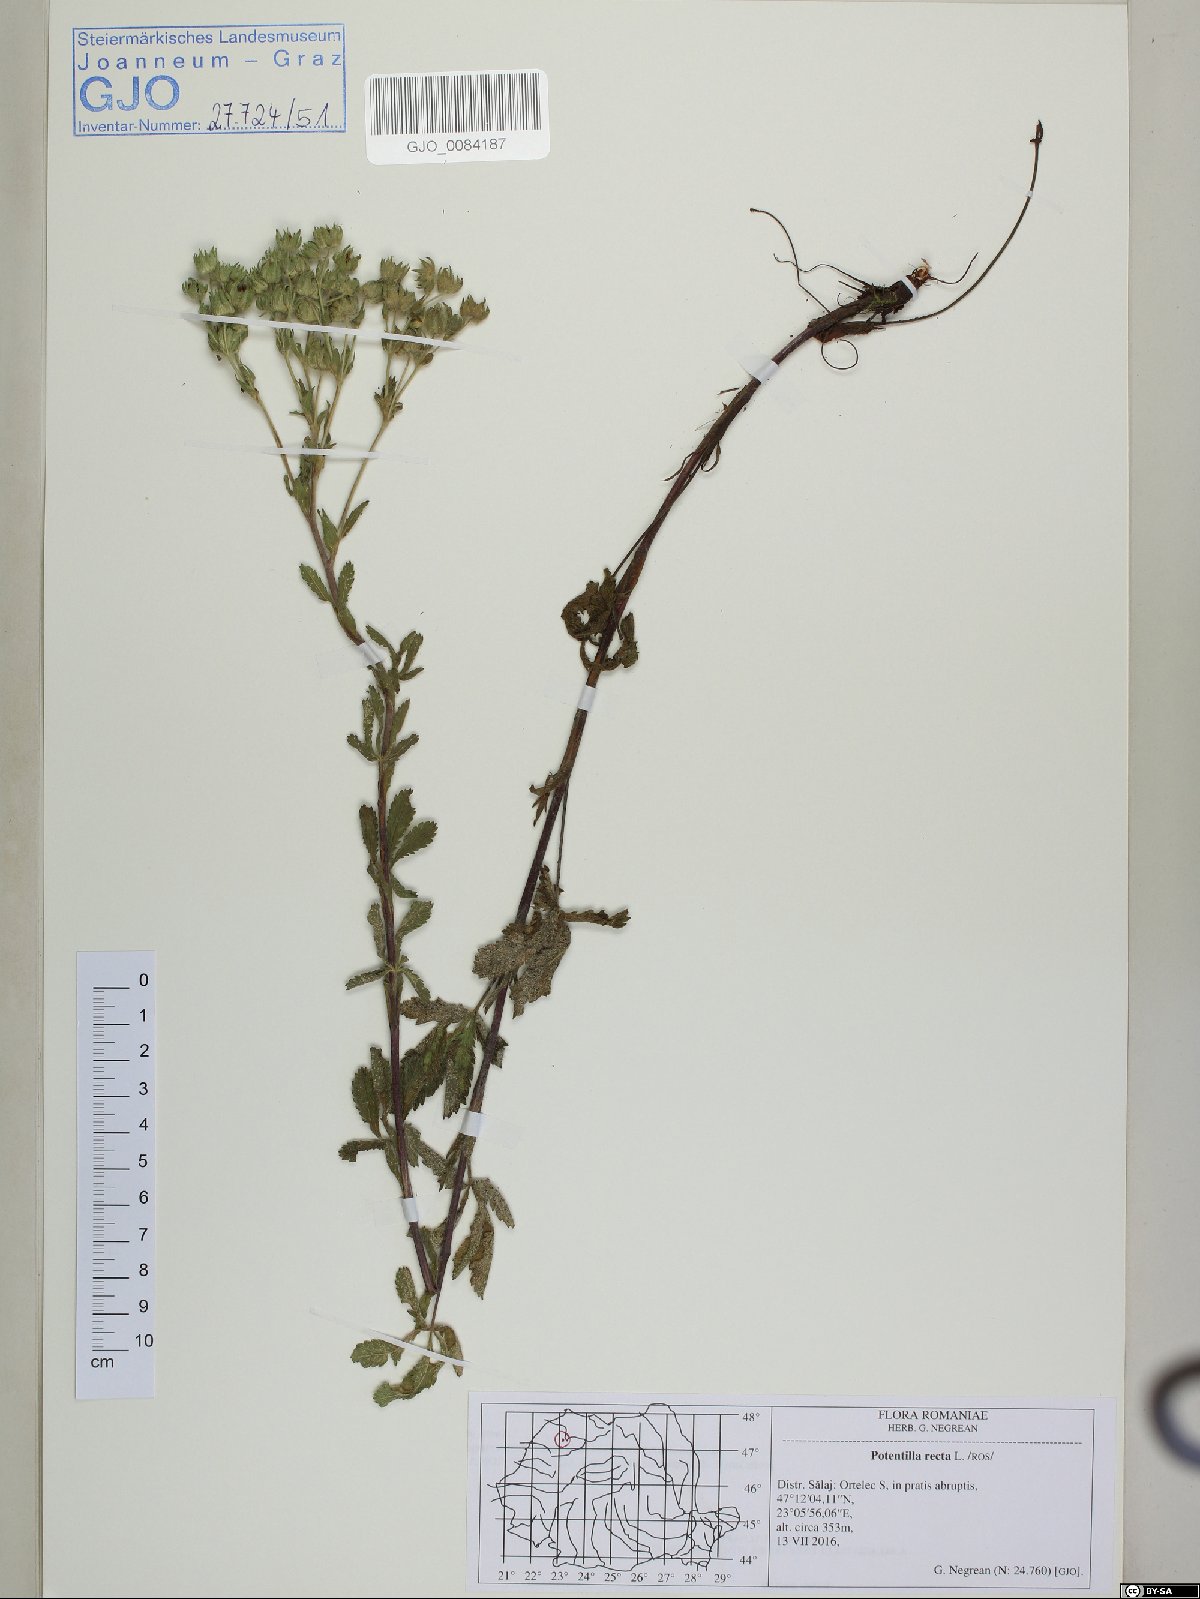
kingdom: Plantae
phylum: Tracheophyta
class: Magnoliopsida
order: Rosales
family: Rosaceae
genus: Potentilla
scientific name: Potentilla recta
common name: Sulphur cinquefoil
